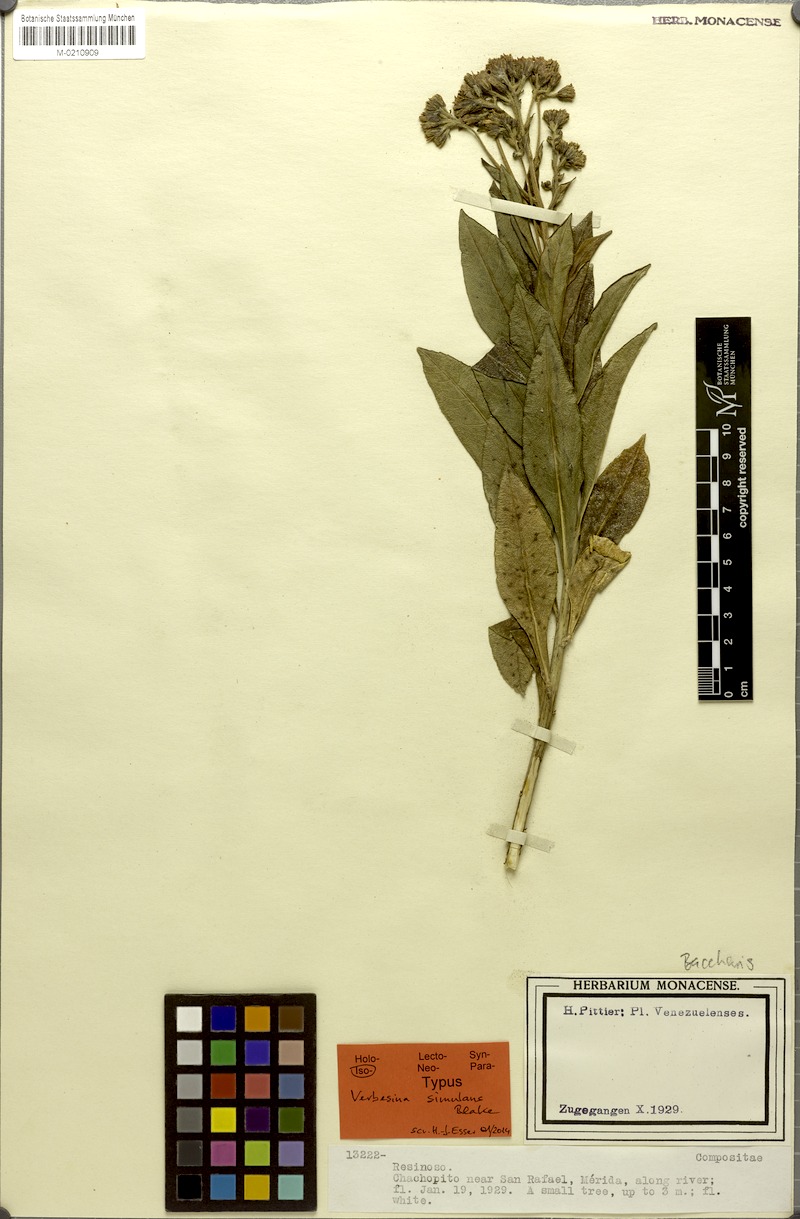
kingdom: Plantae
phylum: Tracheophyta
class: Magnoliopsida
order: Asterales
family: Asteraceae
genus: Verbesina
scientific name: Verbesina simulans
